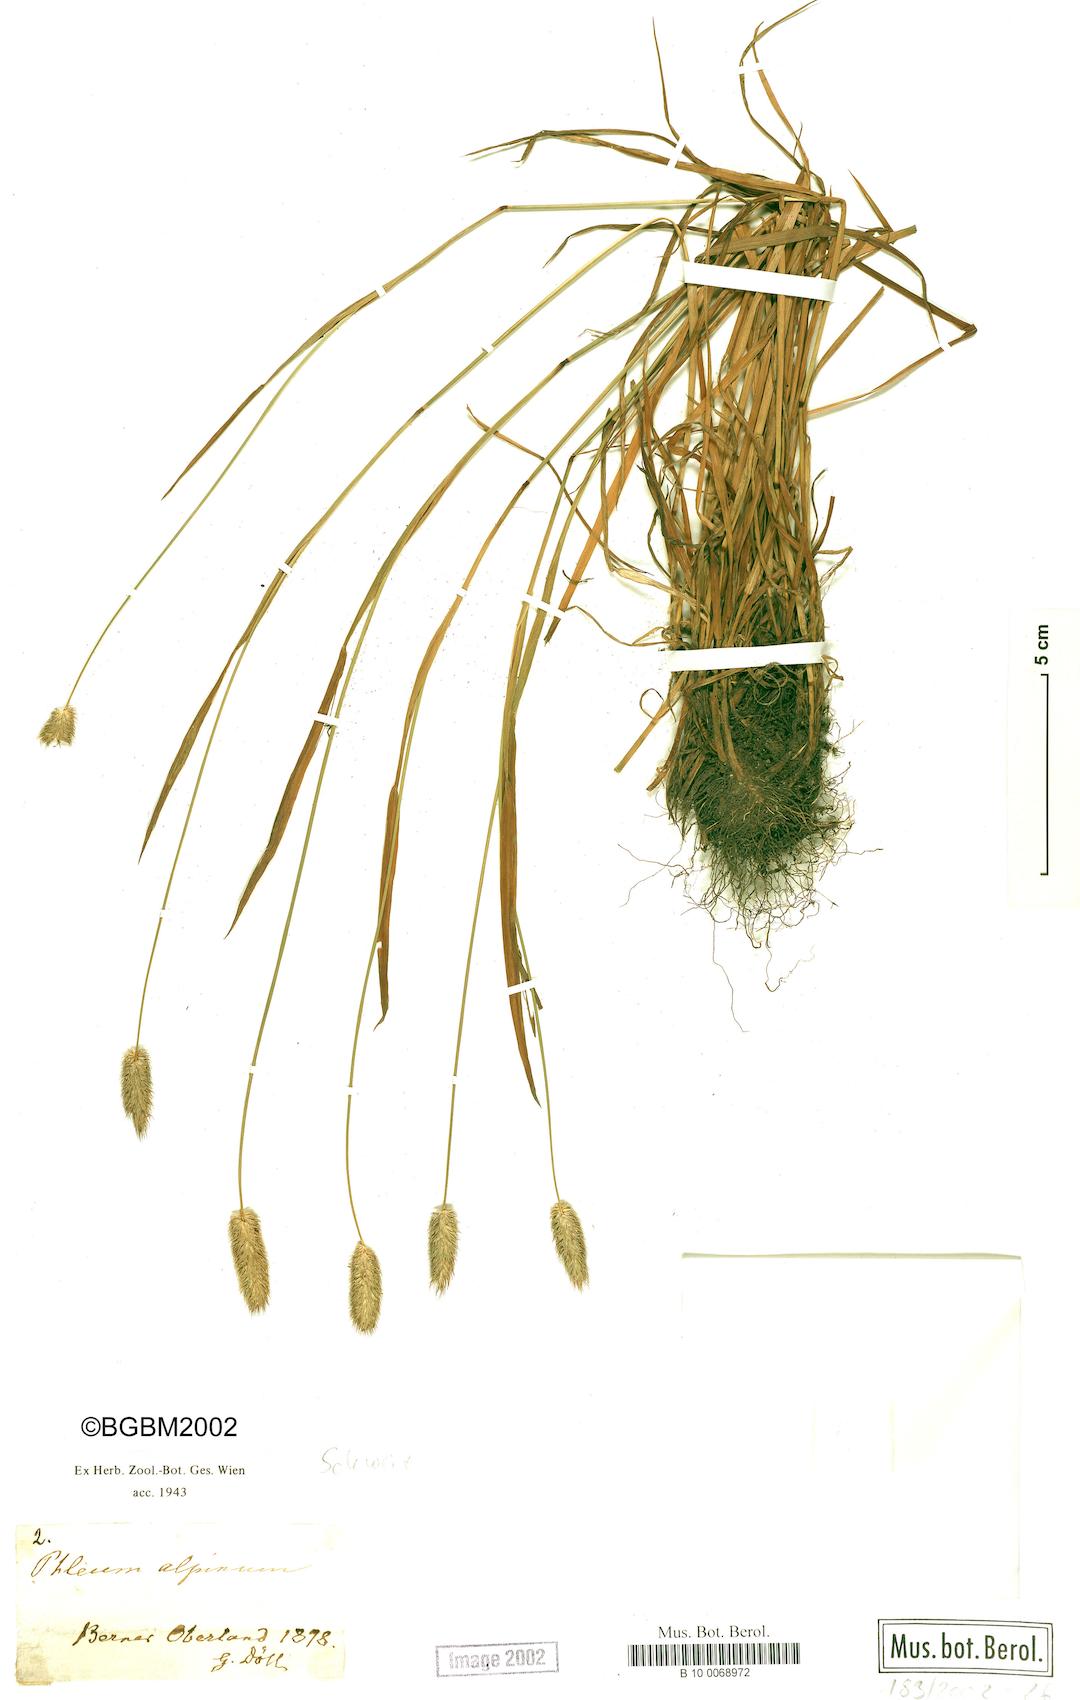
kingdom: Plantae
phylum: Tracheophyta
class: Liliopsida
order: Poales
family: Poaceae
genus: Phleum
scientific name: Phleum alpinum
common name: Alpine cat's-tail
